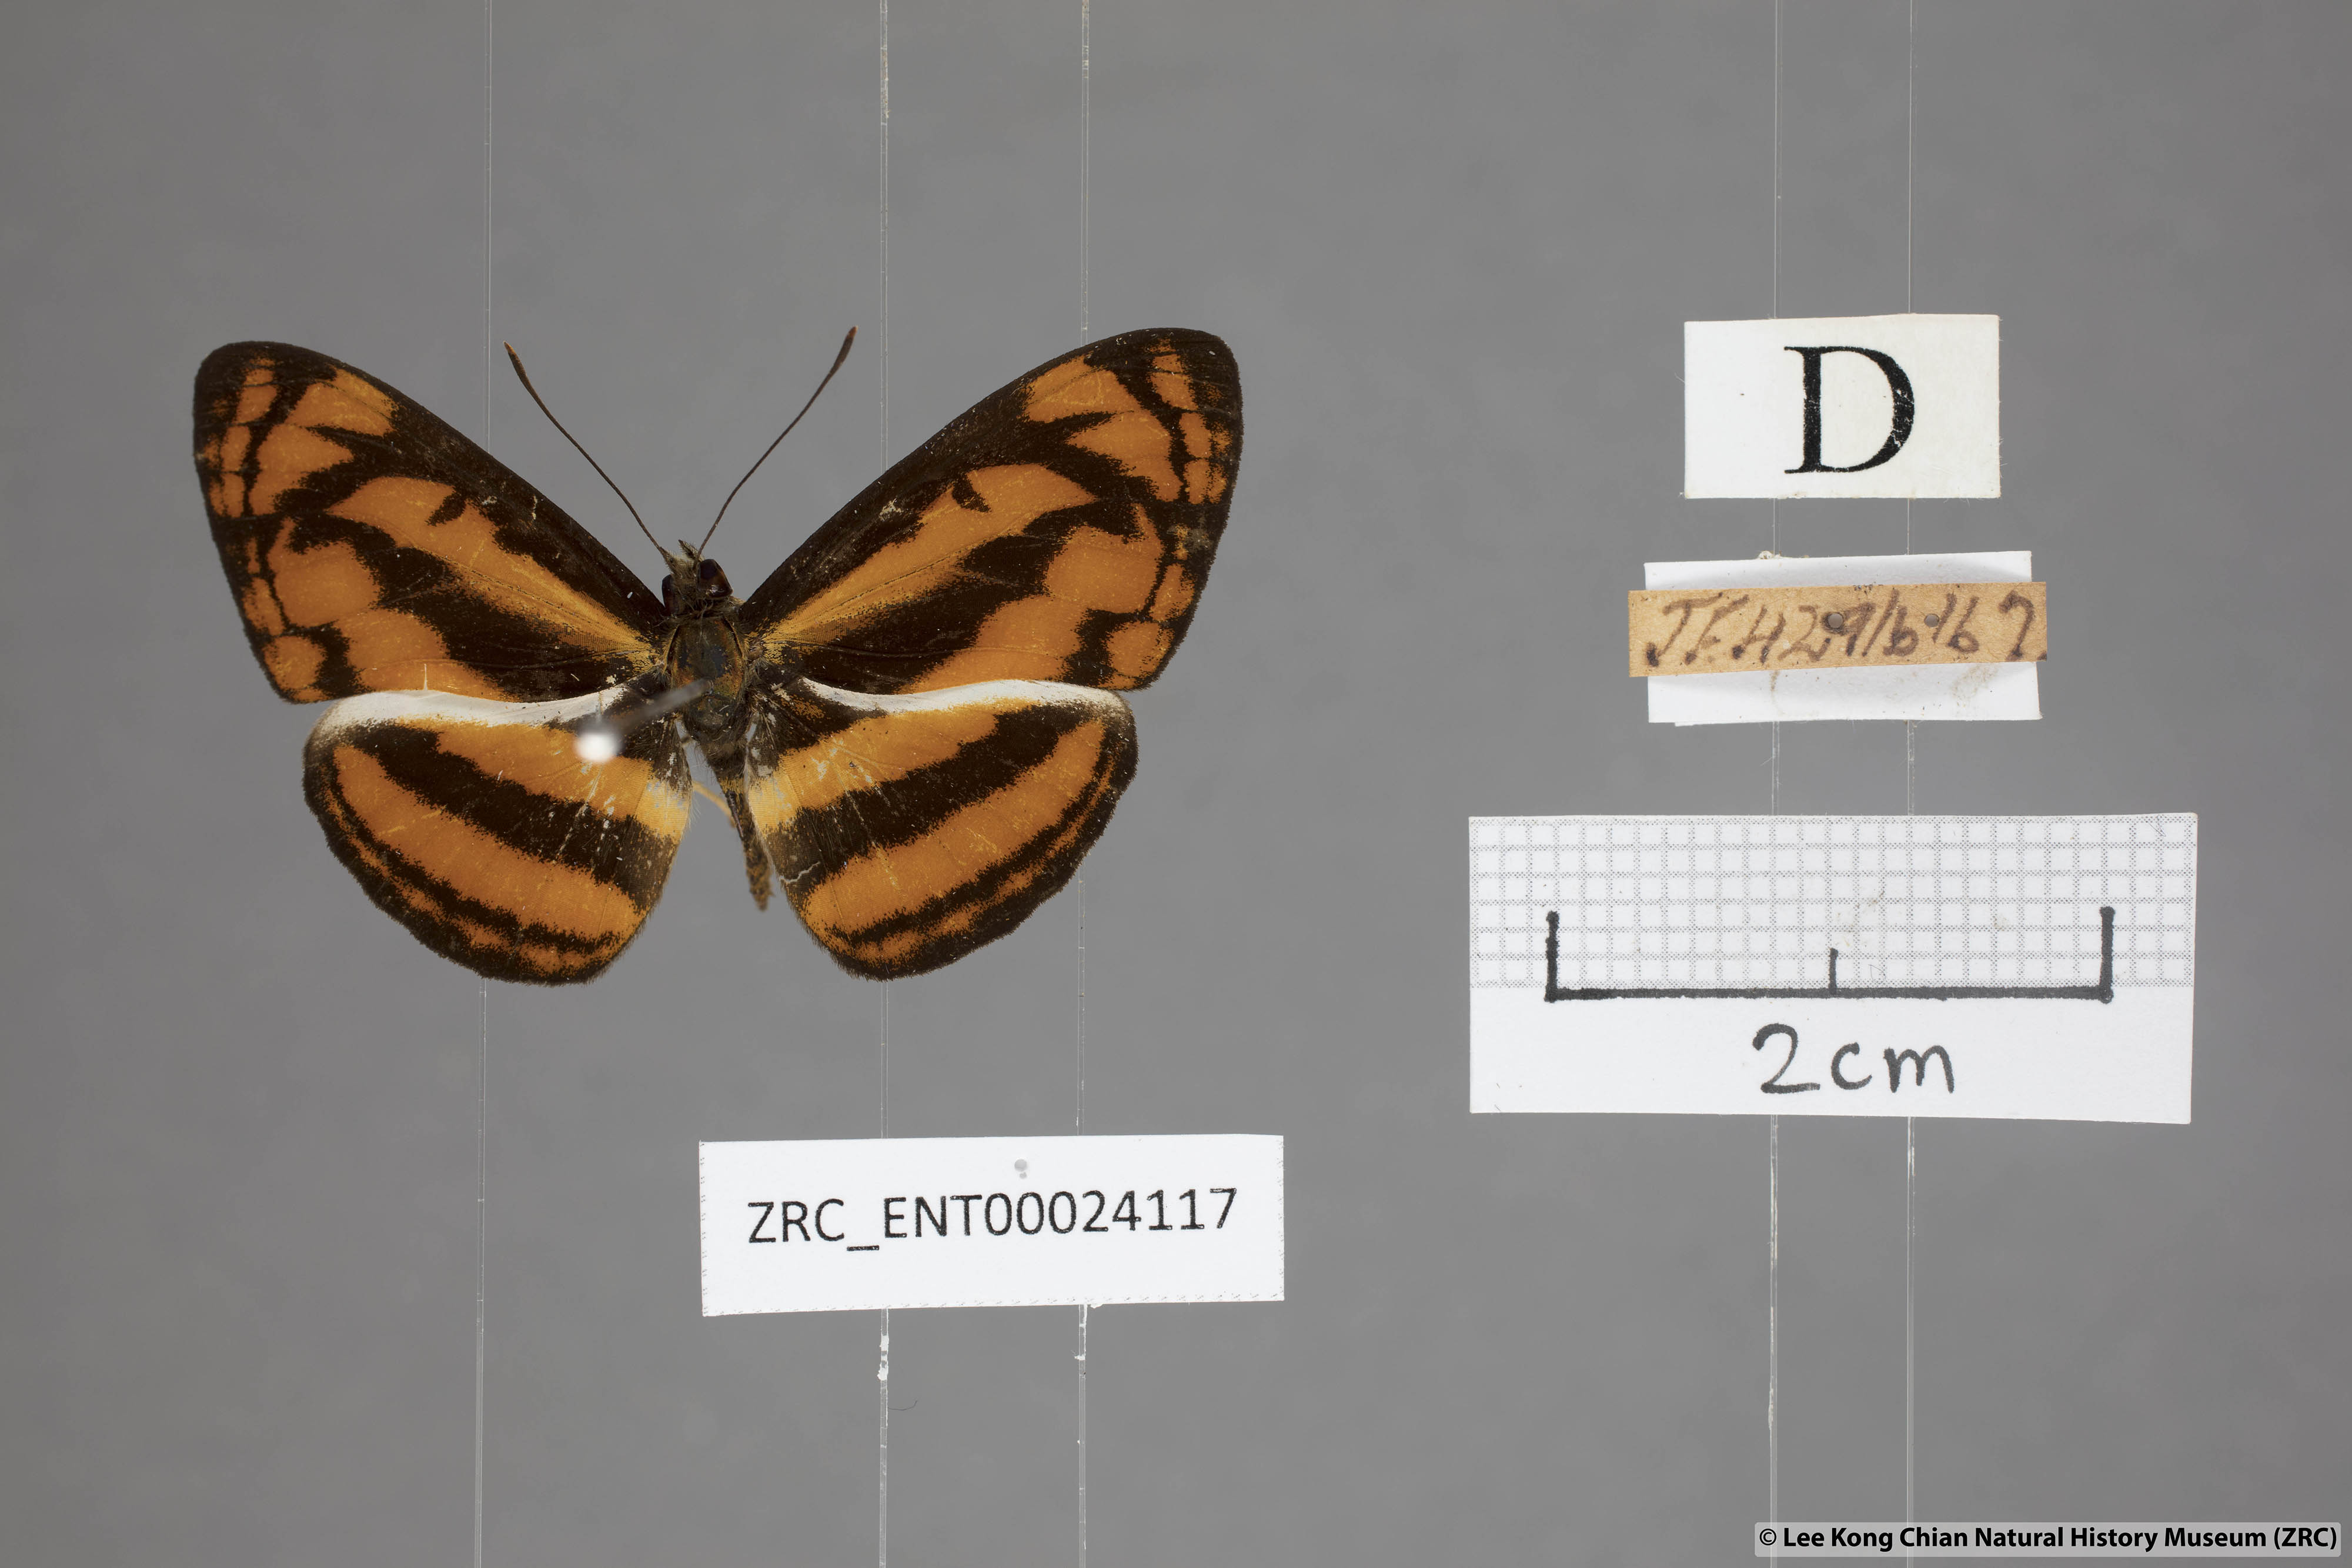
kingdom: Animalia
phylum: Arthropoda
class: Insecta
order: Lepidoptera
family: Nymphalidae
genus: Pantoporia
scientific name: Pantoporia aurelia
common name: Baby lascar
